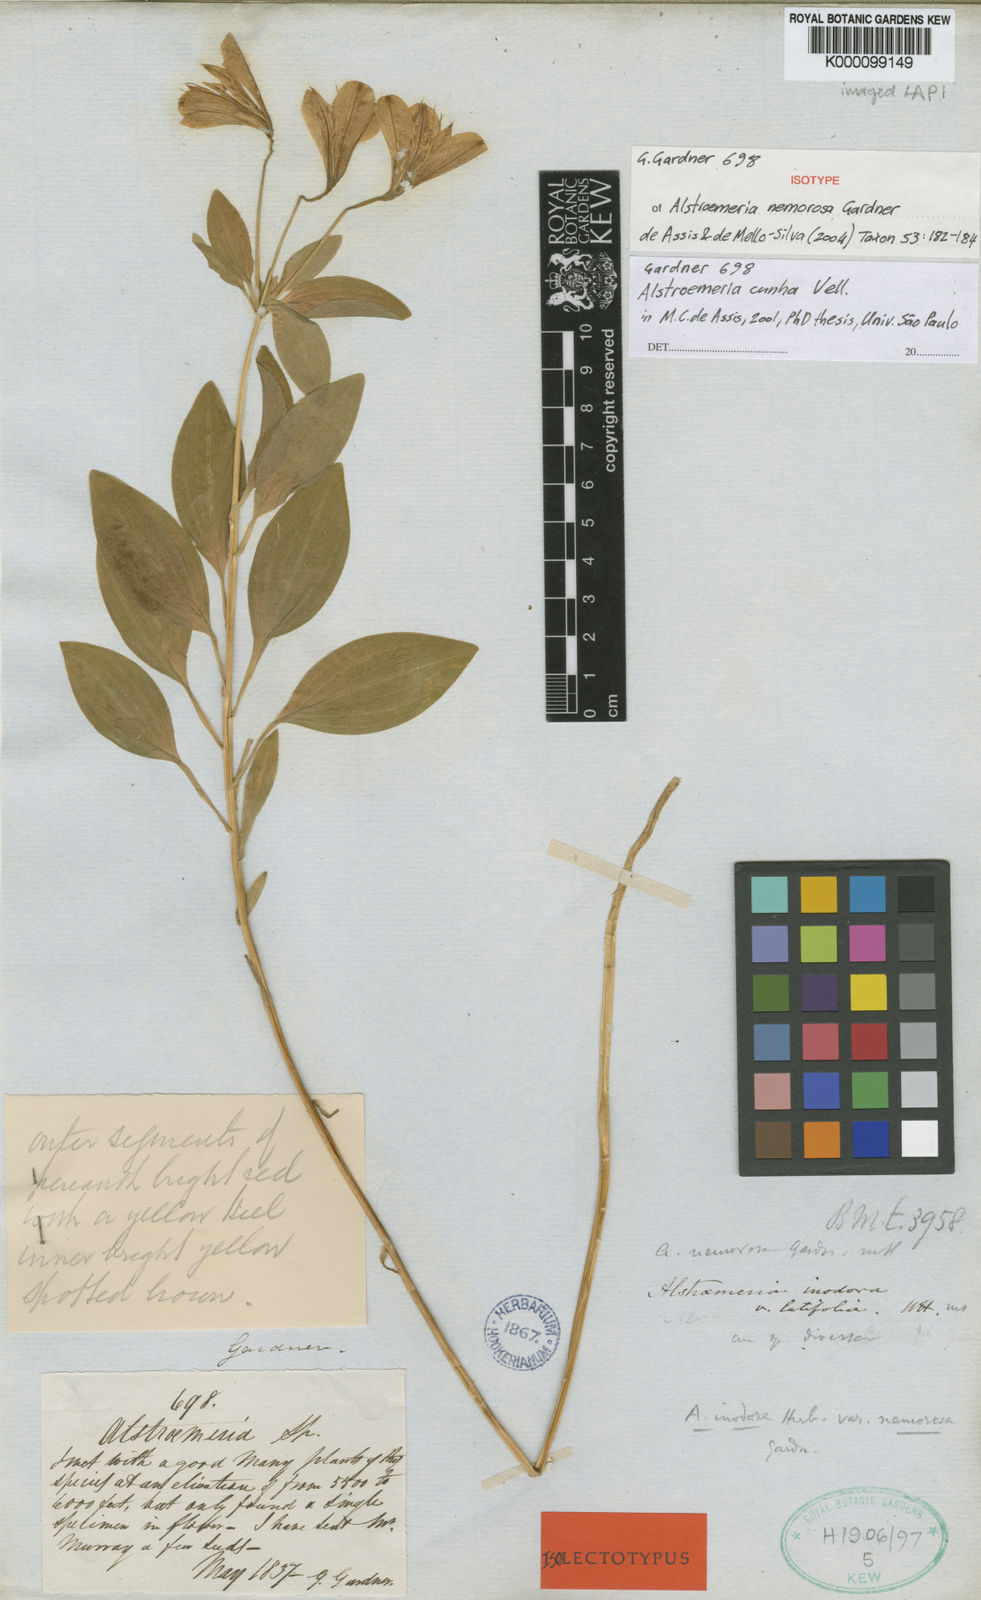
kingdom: Plantae
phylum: Tracheophyta
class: Liliopsida
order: Liliales
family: Alstroemeriaceae
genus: Alstroemeria
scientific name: Alstroemeria cunha
